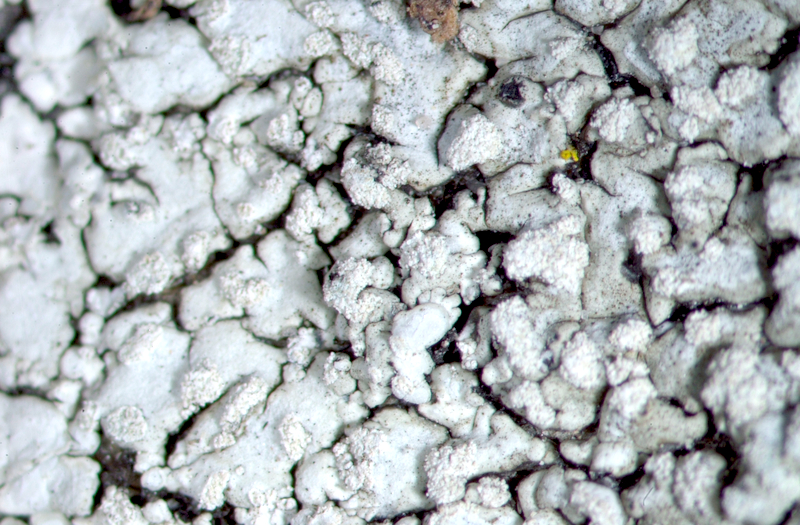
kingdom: Fungi
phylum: Ascomycota
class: Lecanoromycetes
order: Caliciales
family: Physciaceae
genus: Phaeophyscia
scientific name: Phaeophyscia orbicularis
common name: Mealy shadow lichen
